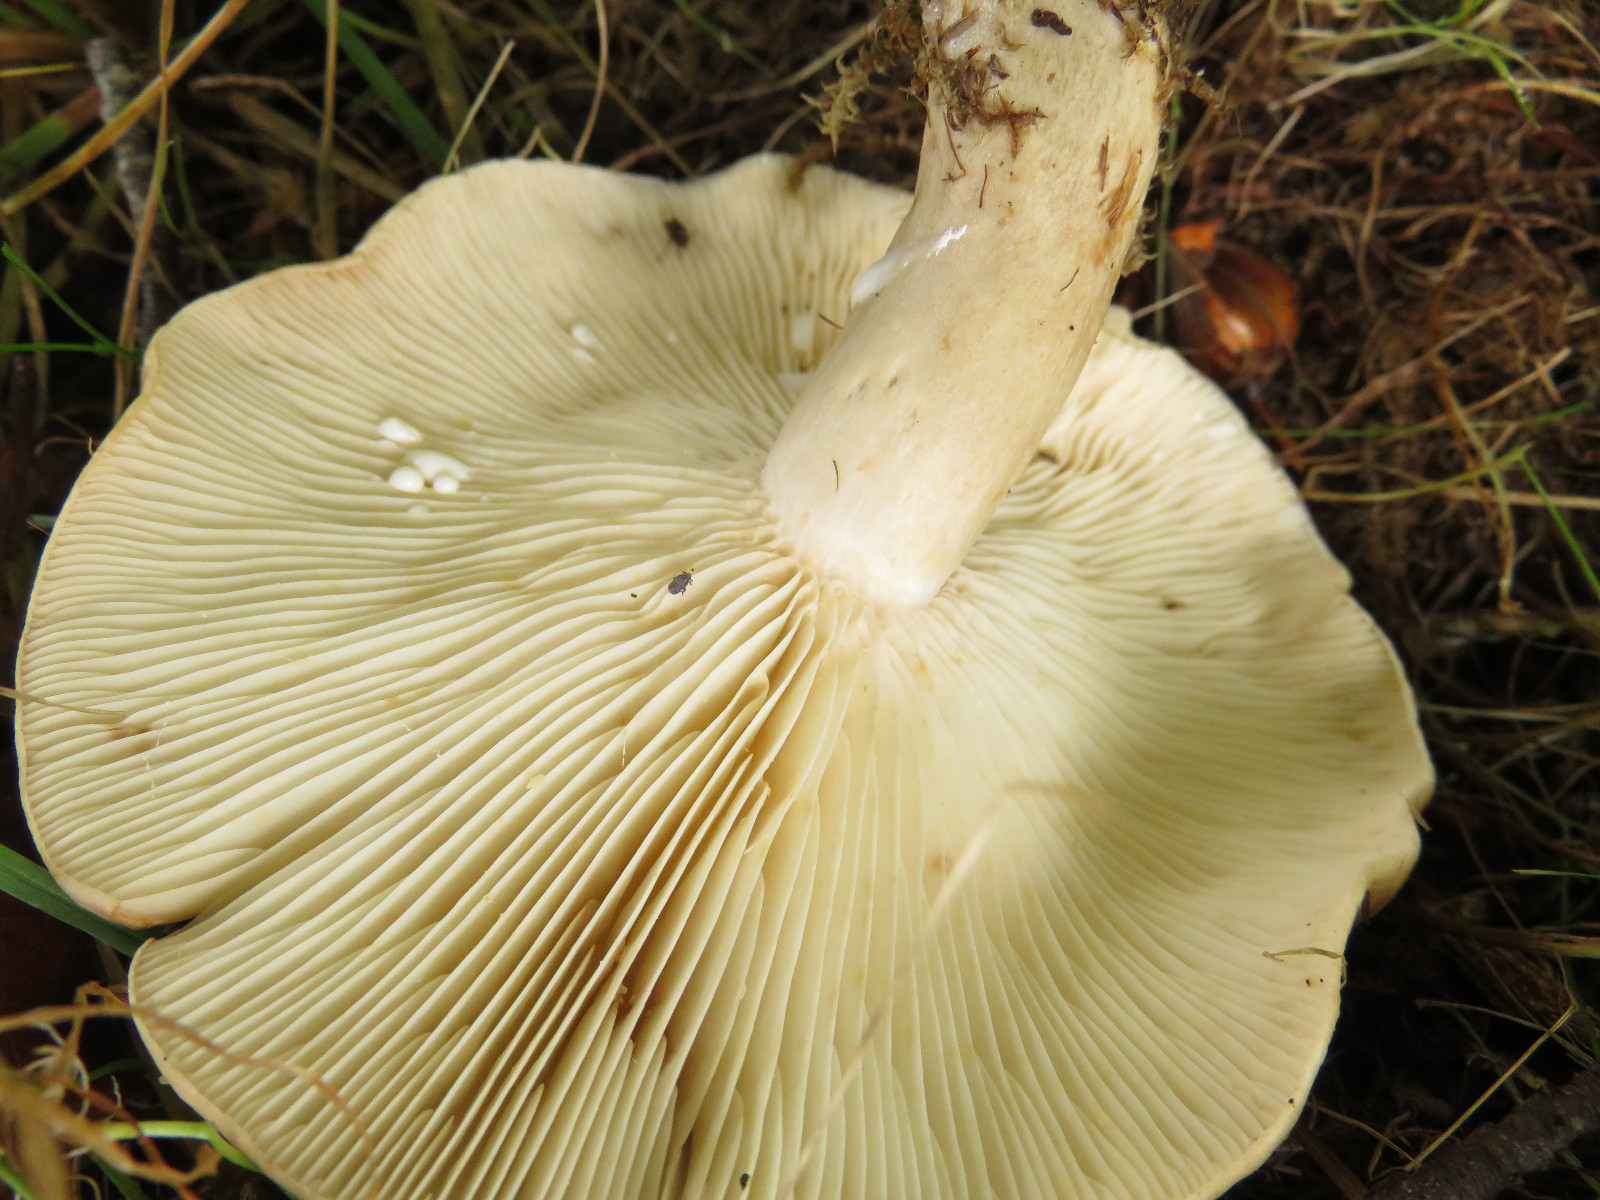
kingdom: Fungi
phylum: Basidiomycota
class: Agaricomycetes
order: Russulales
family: Russulaceae
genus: Lactarius
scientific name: Lactarius
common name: mælkehat
